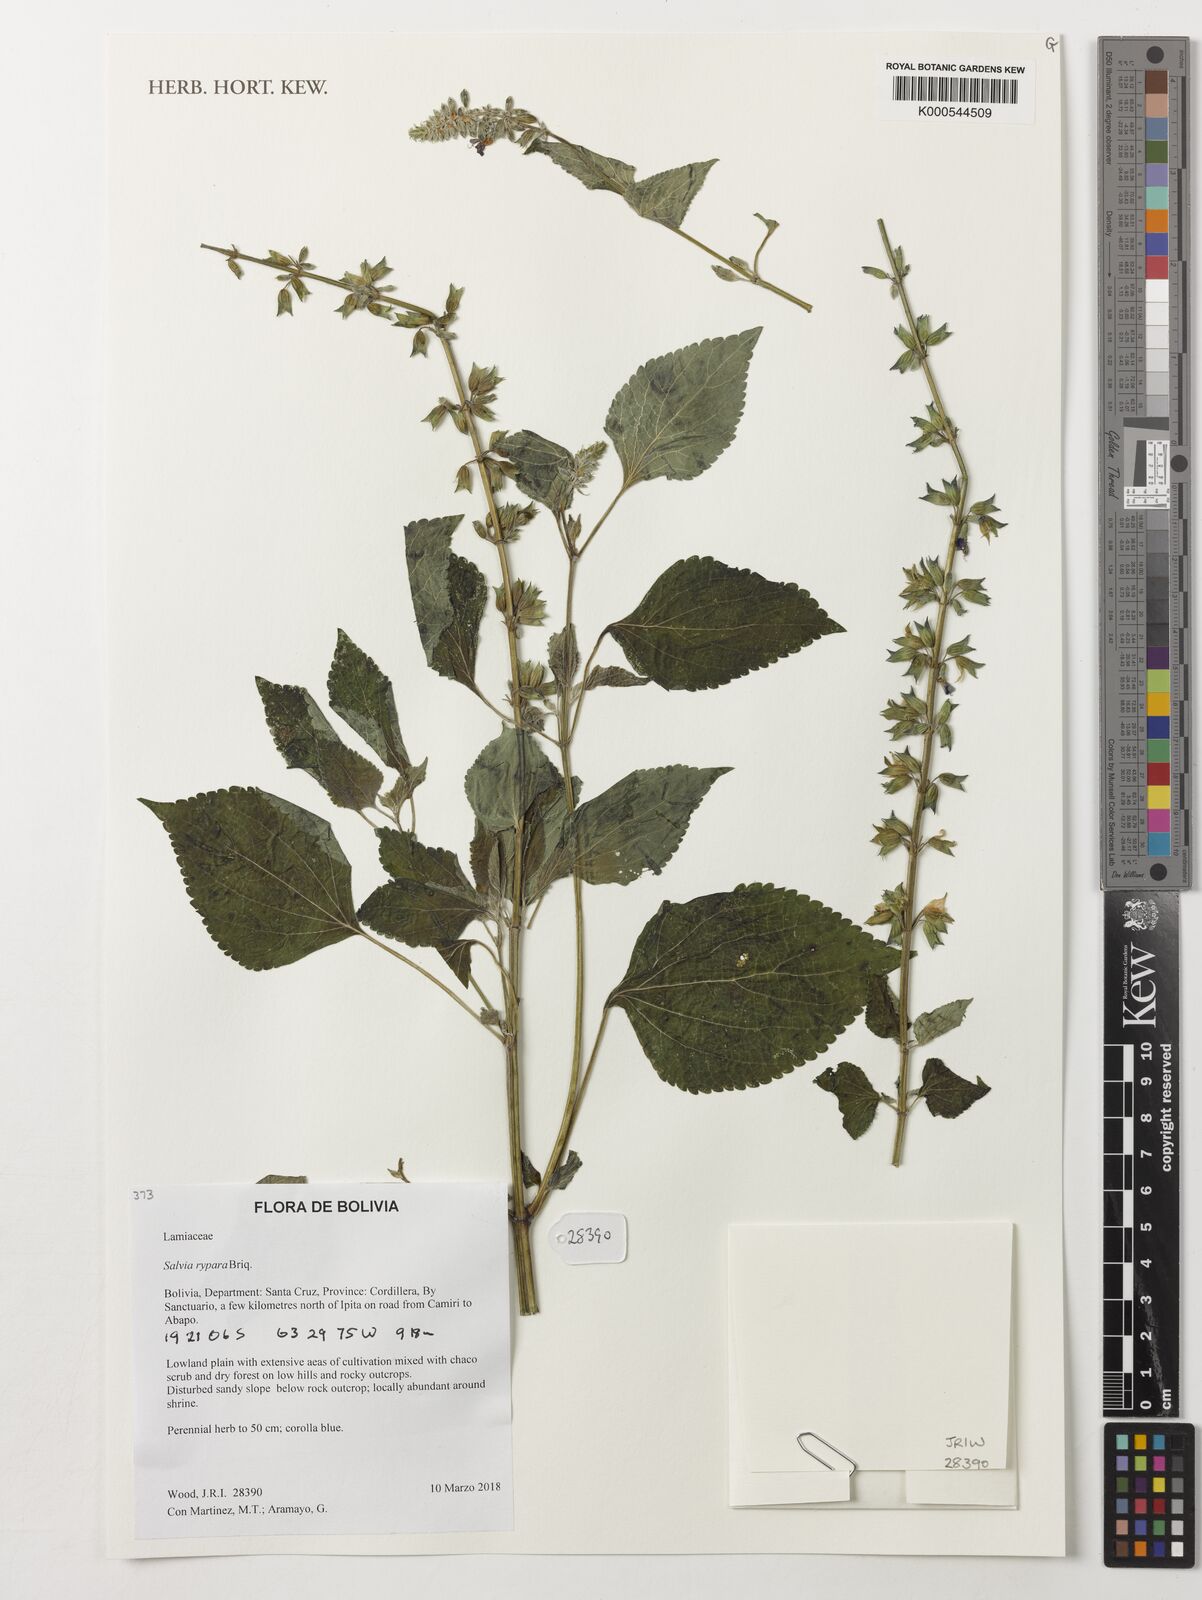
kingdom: Plantae
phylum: Tracheophyta
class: Magnoliopsida
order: Lamiales
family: Lamiaceae
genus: Salvia
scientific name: Salvia rypara
